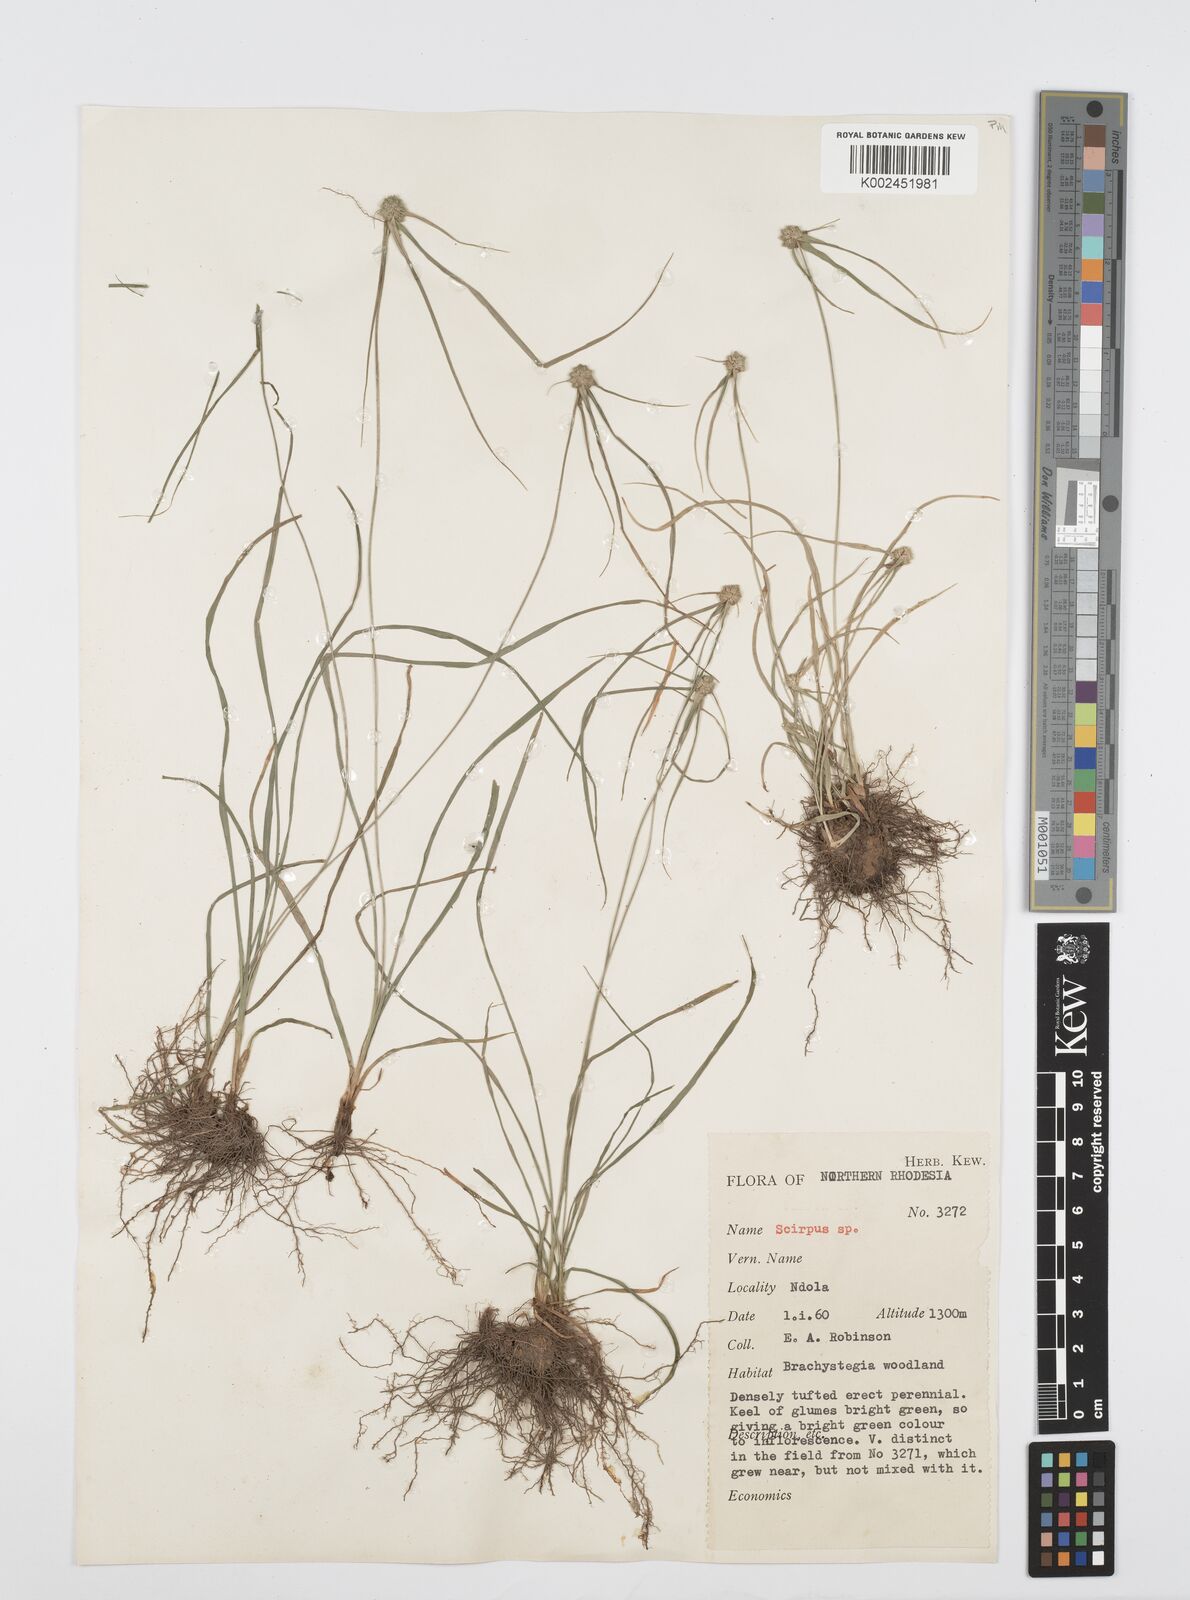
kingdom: Plantae
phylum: Tracheophyta
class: Liliopsida
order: Poales
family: Cyperaceae
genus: Cyperus
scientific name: Cyperus microcephalus
